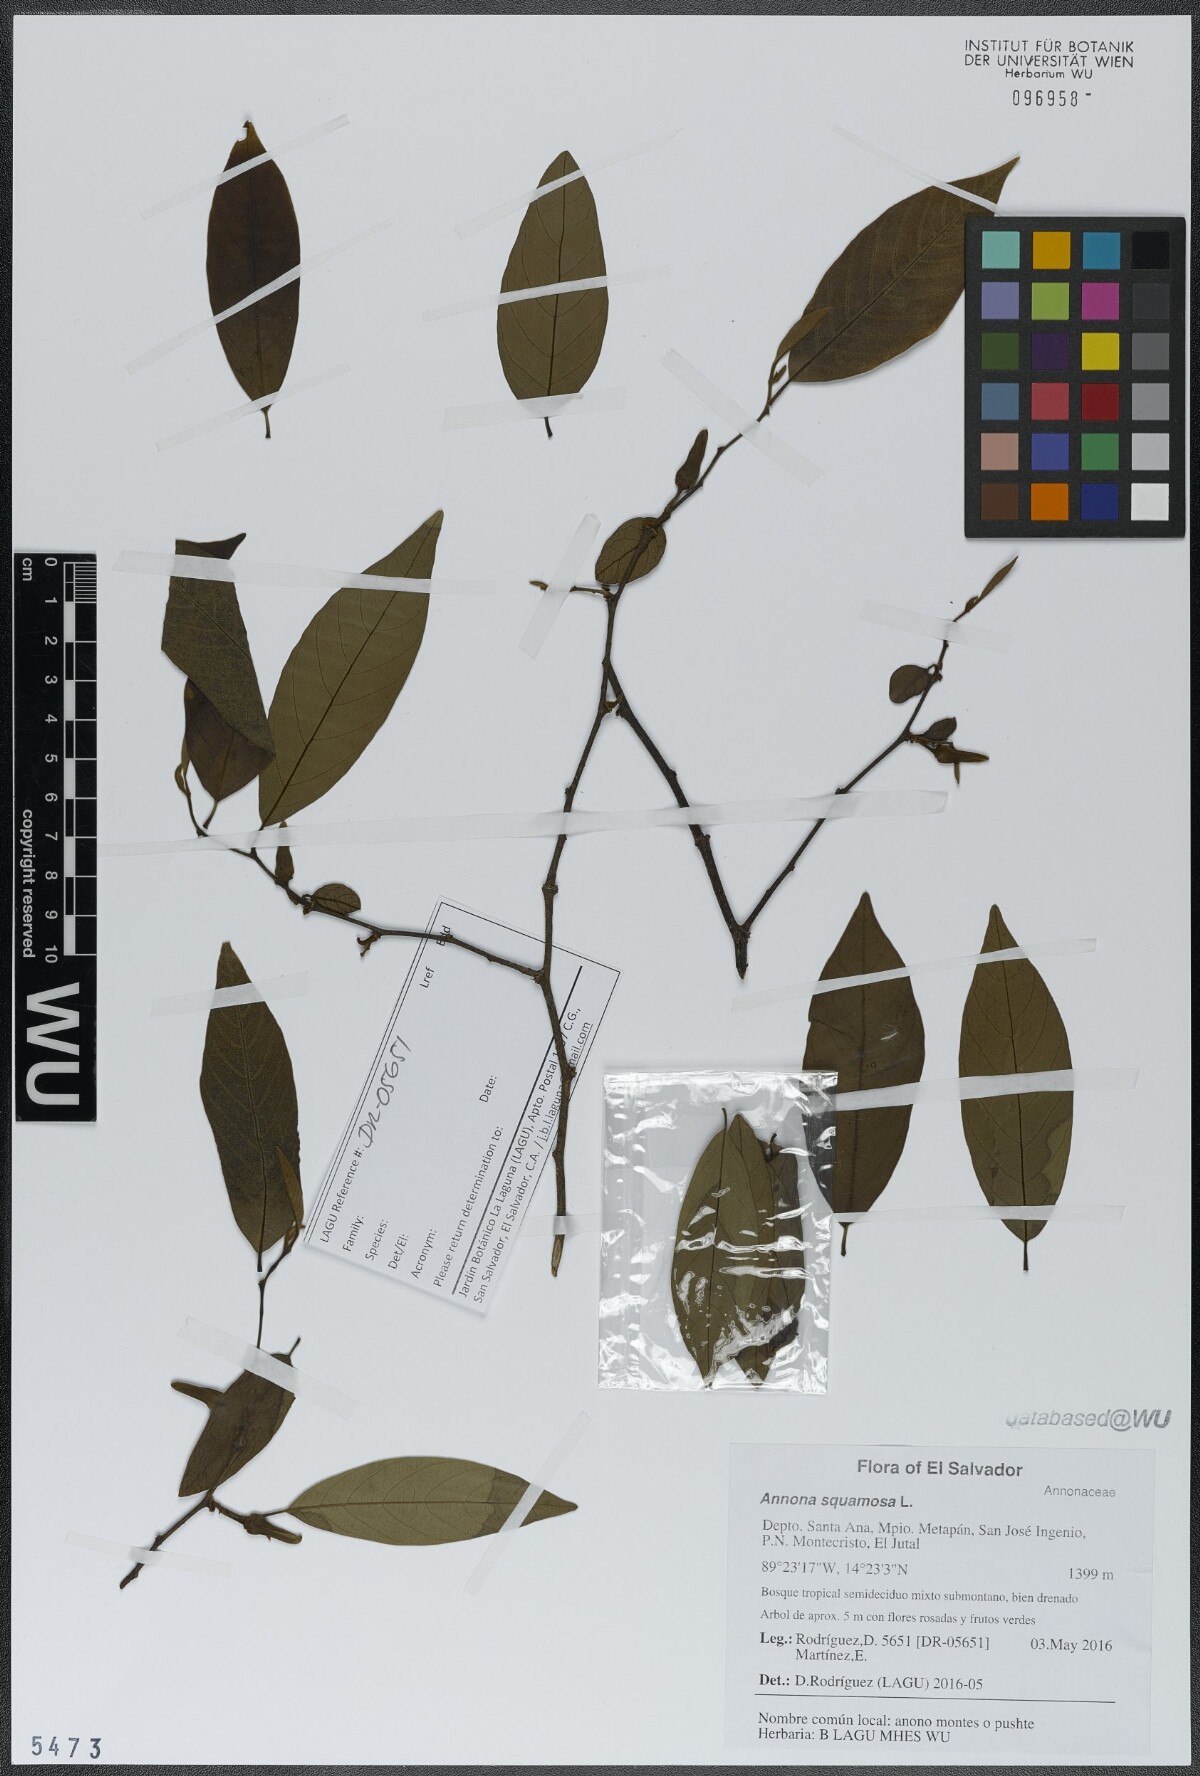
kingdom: Plantae
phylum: Tracheophyta
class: Magnoliopsida
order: Magnoliales
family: Annonaceae
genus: Annona
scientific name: Annona cherimola
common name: Cherimoya
